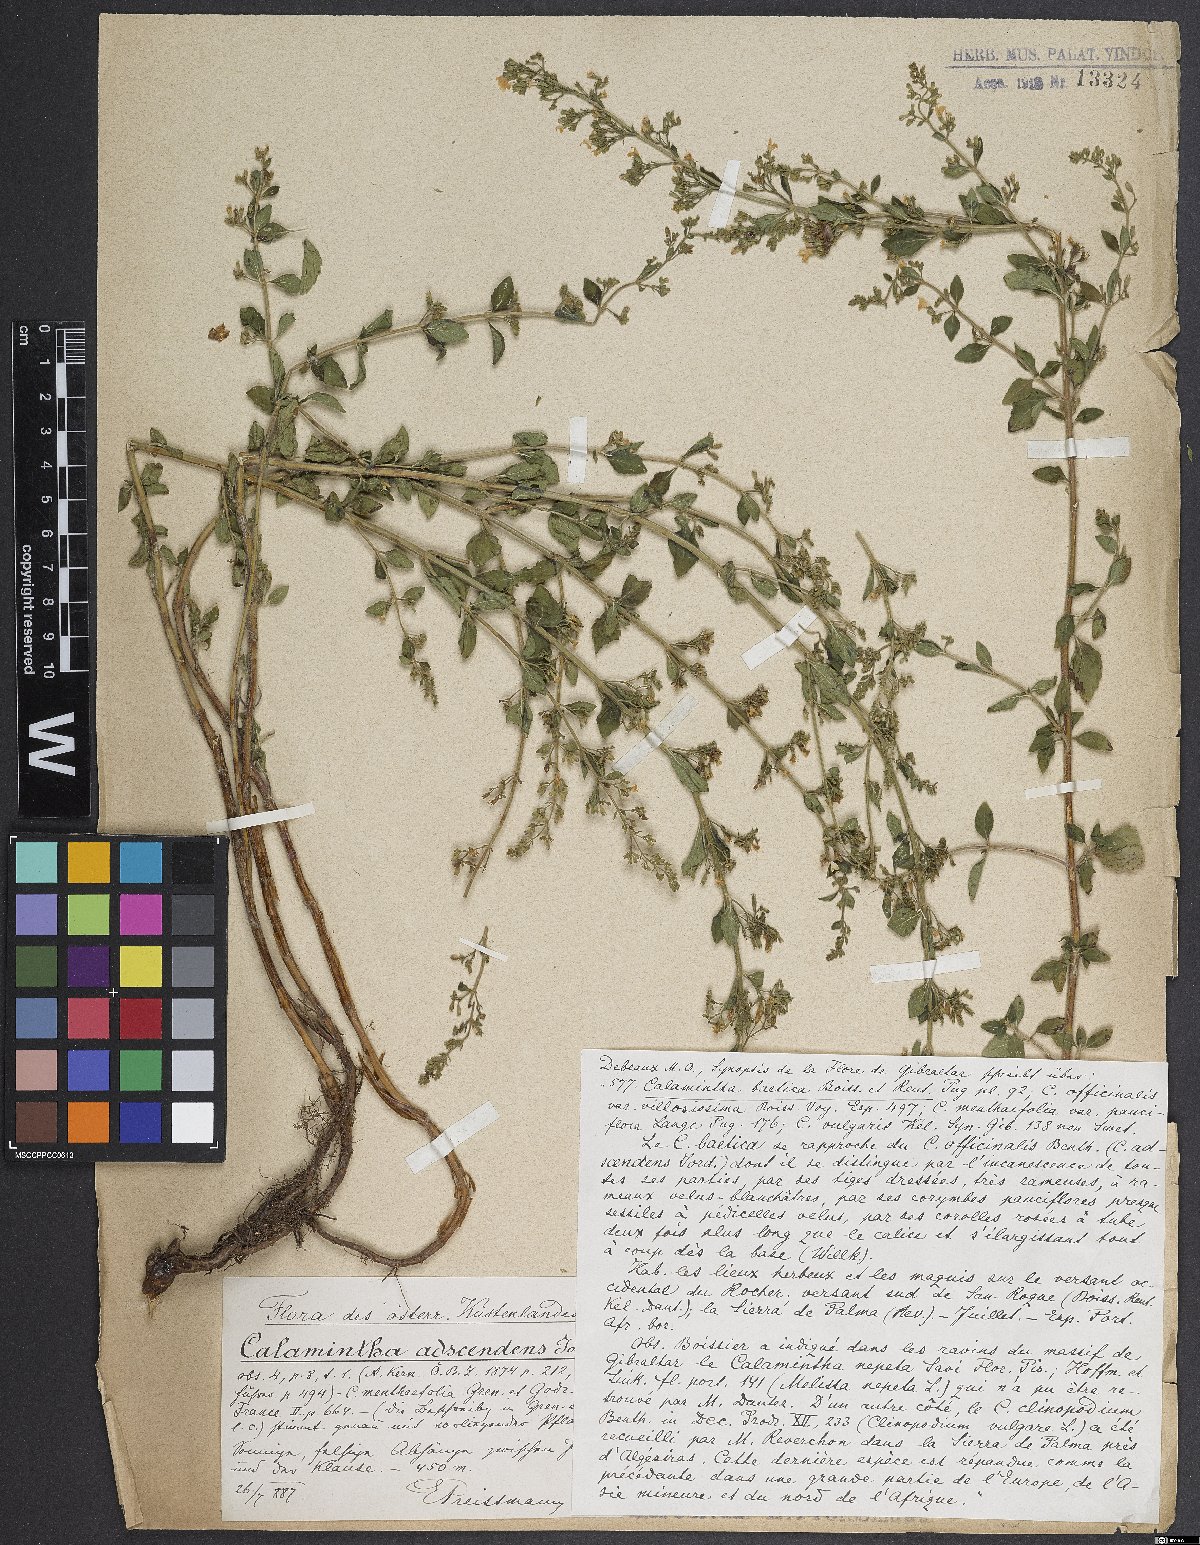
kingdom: Plantae
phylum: Tracheophyta
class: Magnoliopsida
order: Lamiales
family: Lamiaceae
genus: Clinopodium
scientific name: Clinopodium menthifolium
